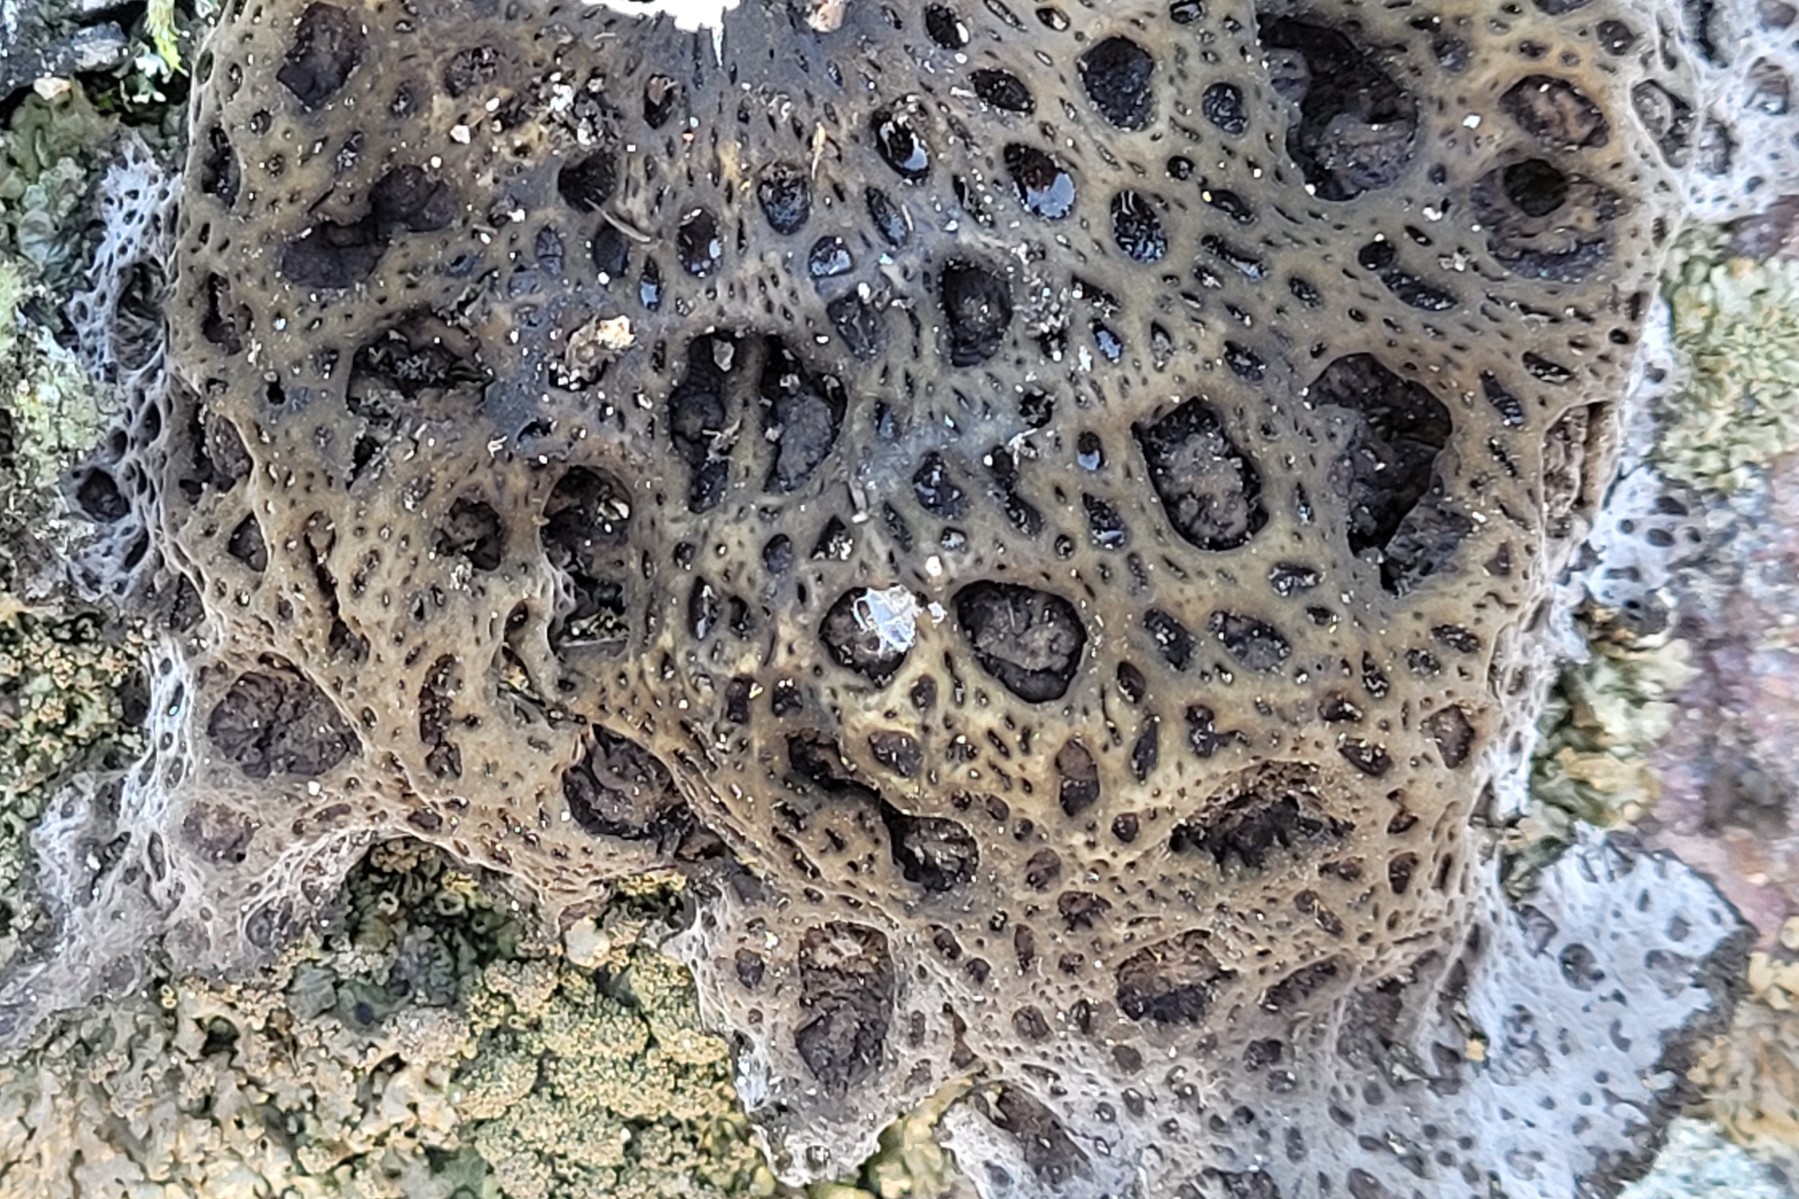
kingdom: Fungi
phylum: Ascomycota
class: Lecanoromycetes
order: Umbilicariales
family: Umbilicariaceae
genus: Lasallia
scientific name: Lasallia pustulata
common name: buklet navlelav
